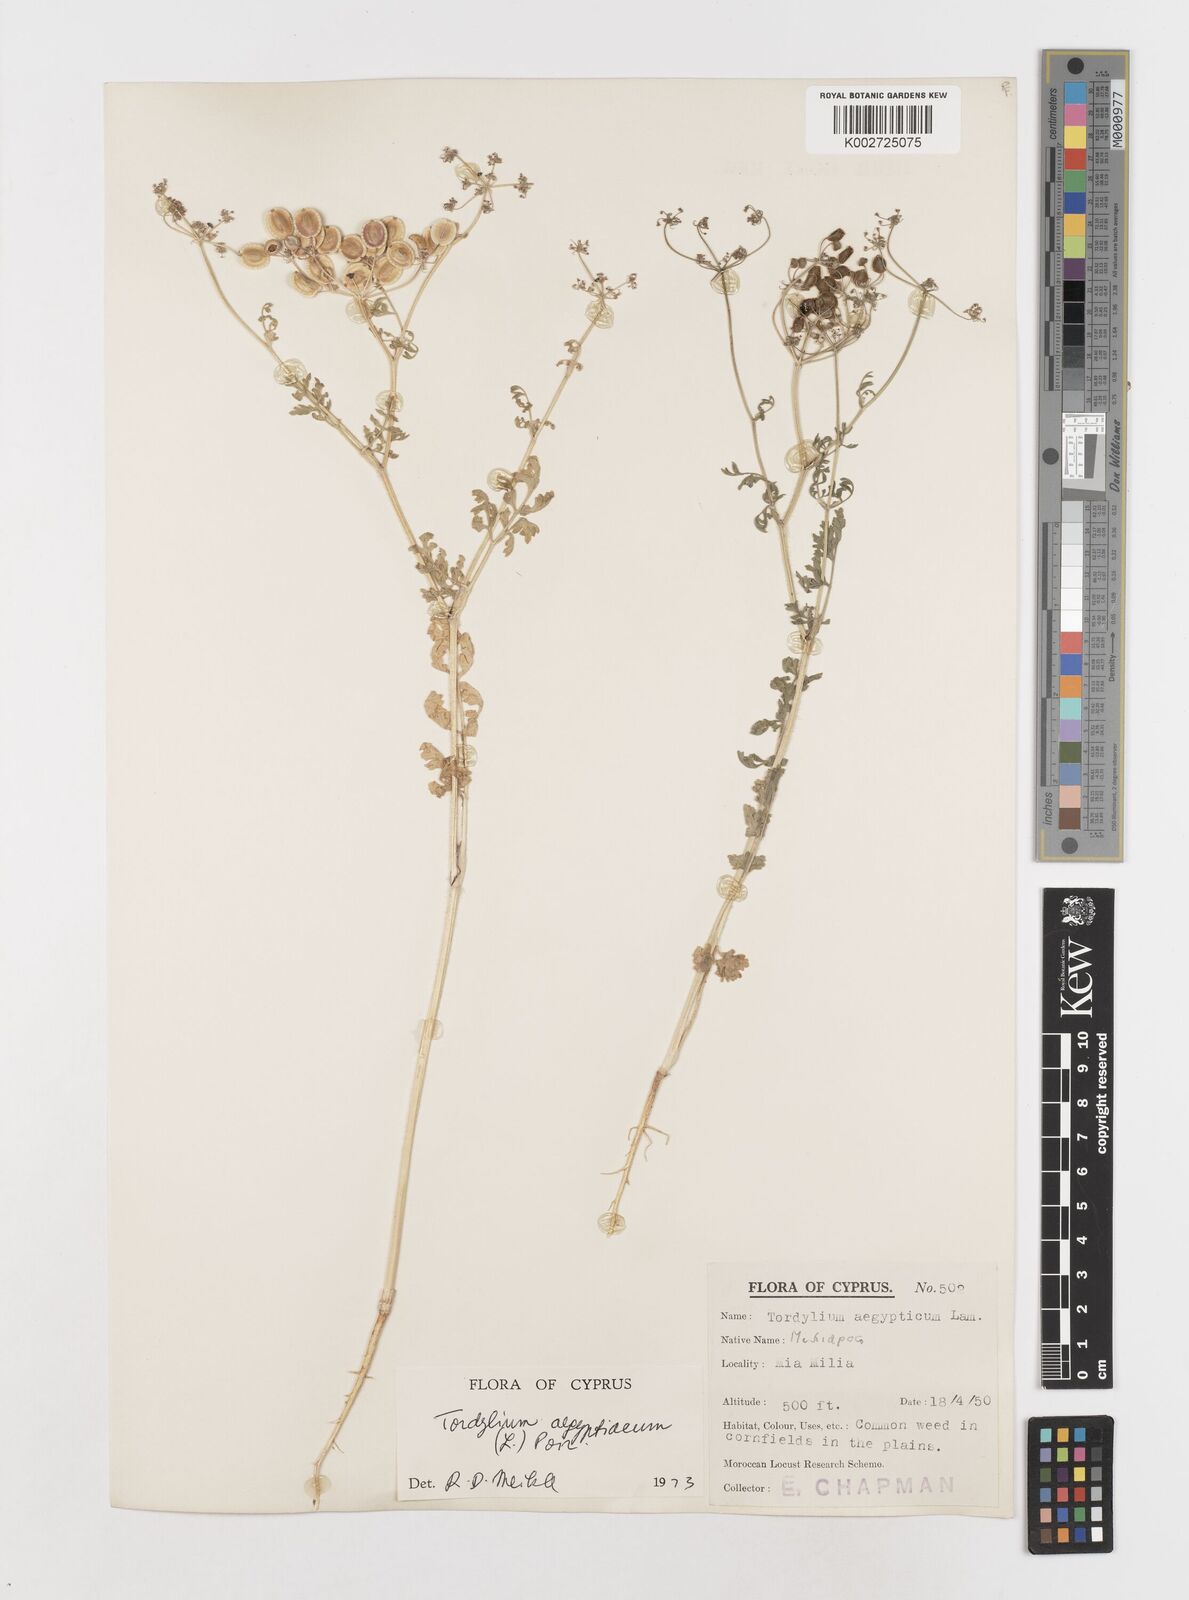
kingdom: Plantae
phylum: Tracheophyta
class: Magnoliopsida
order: Apiales
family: Apiaceae
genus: Tordylium
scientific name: Tordylium aegyptiacum
